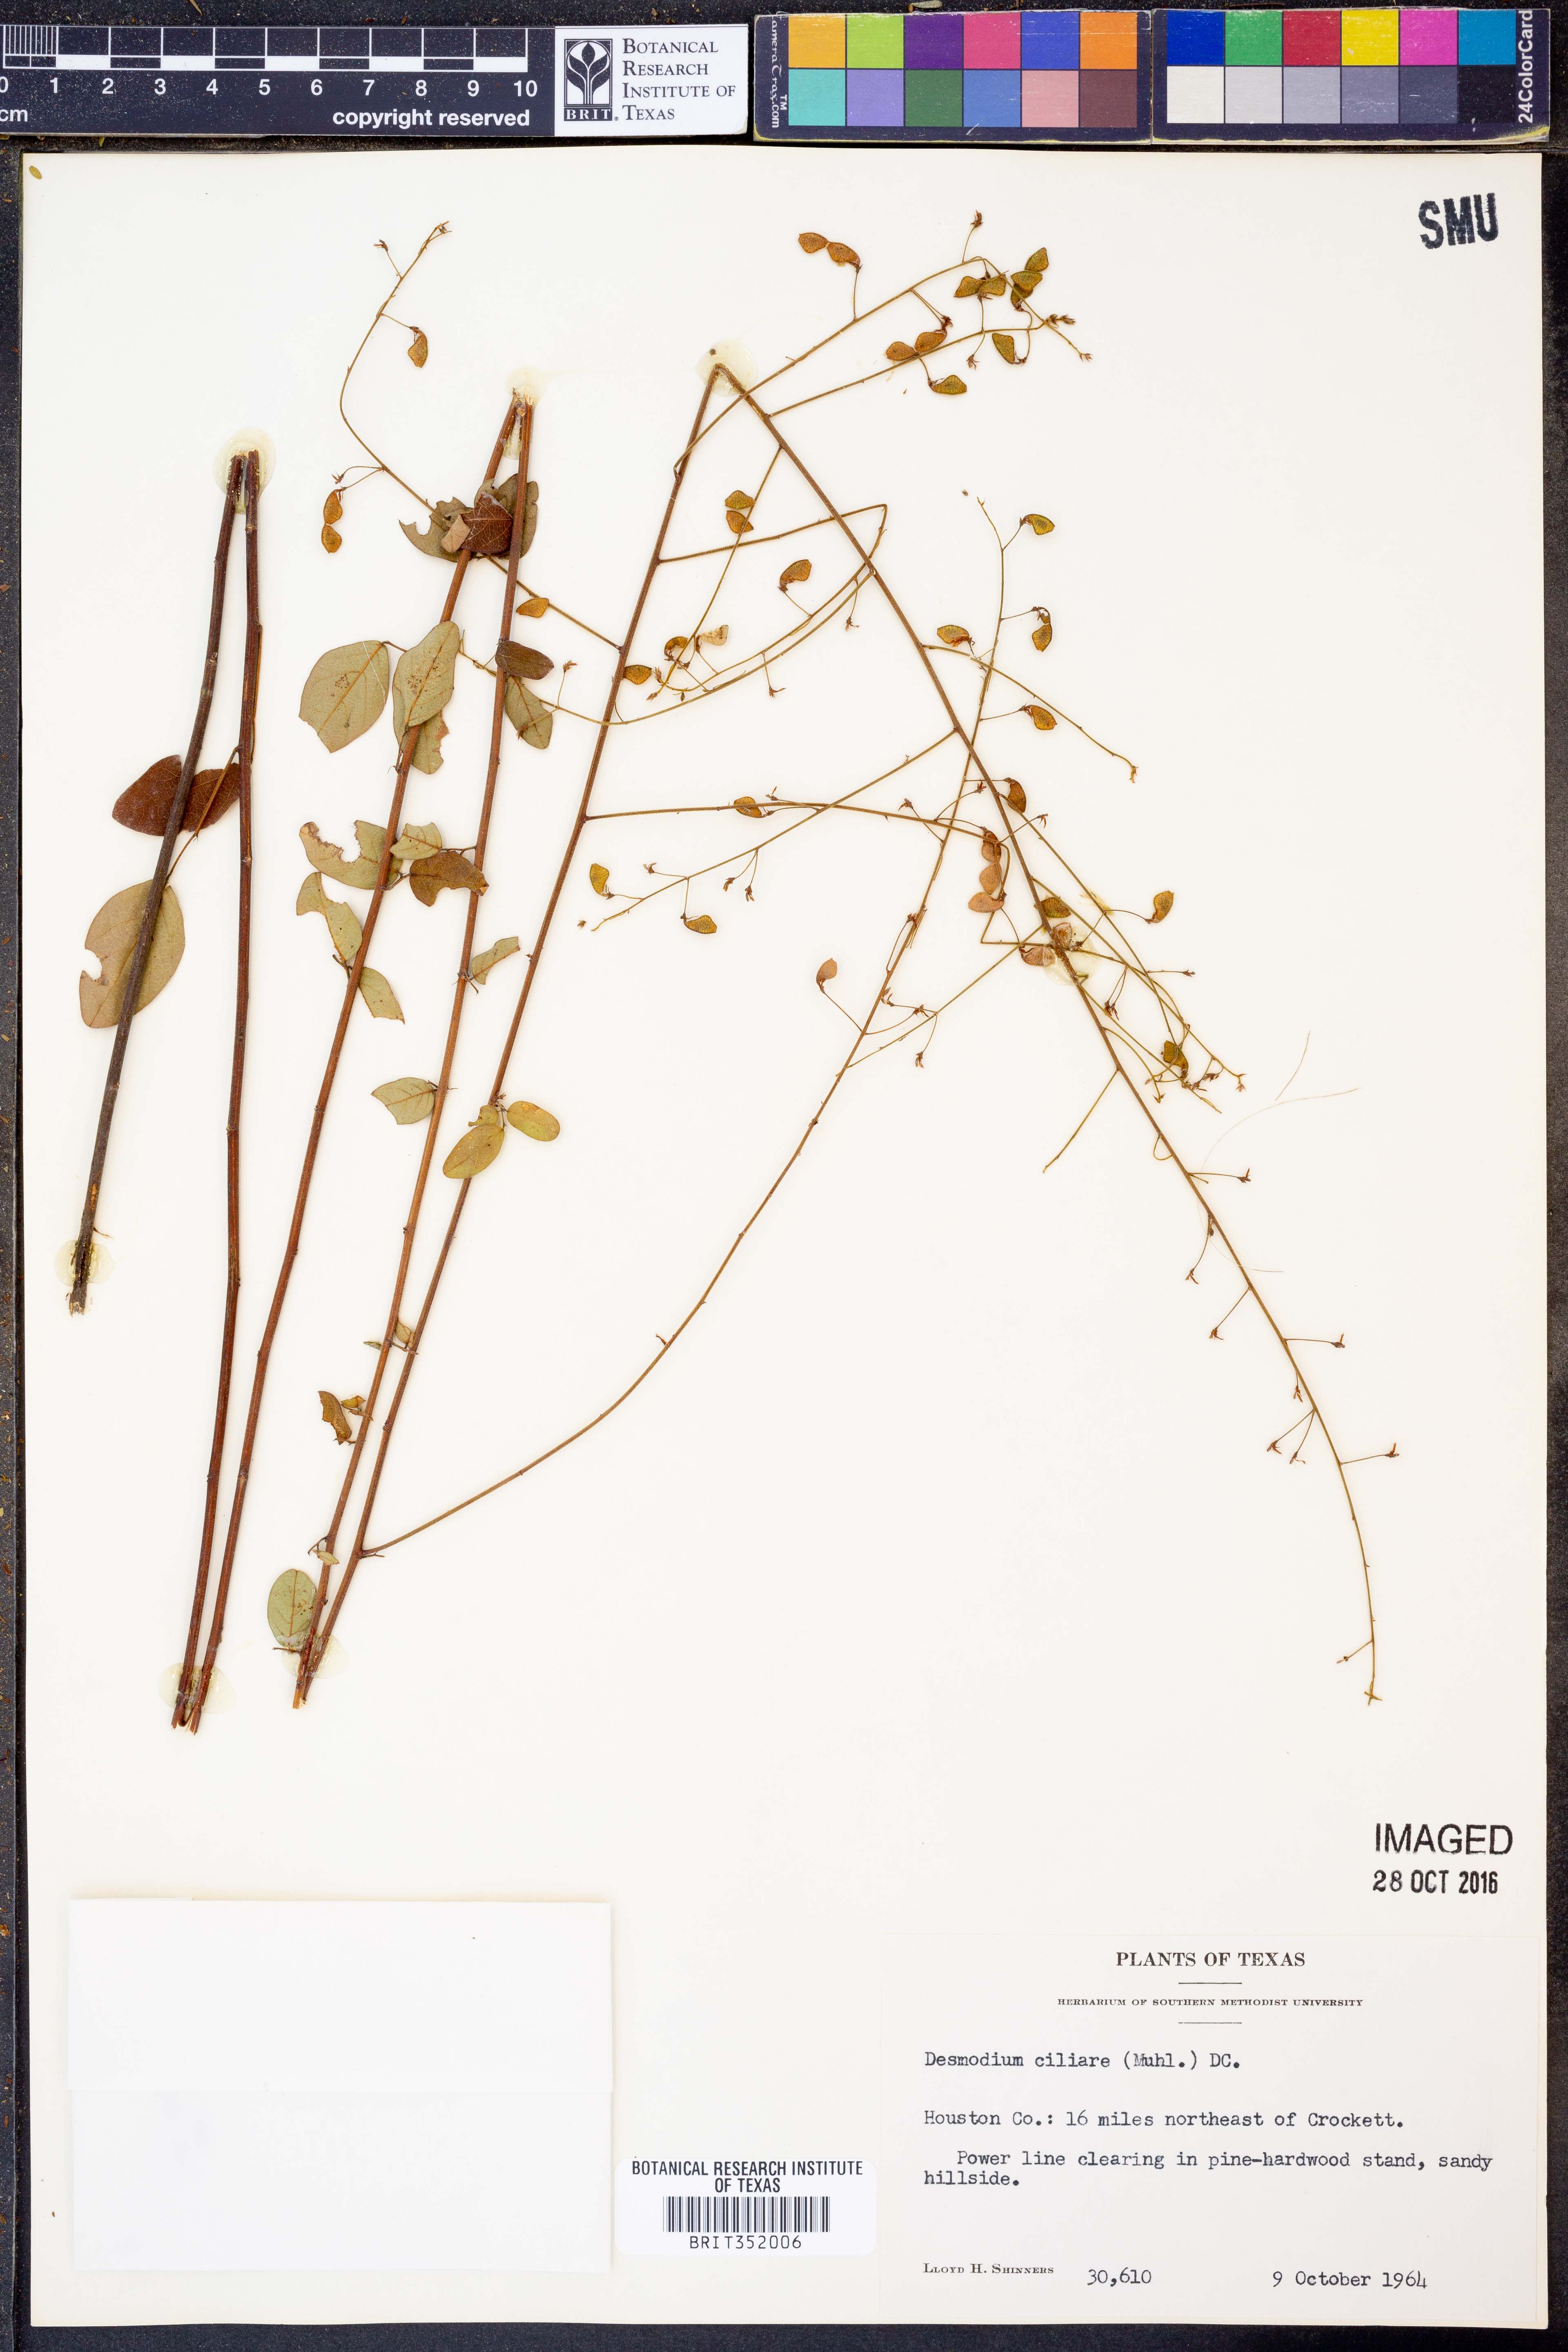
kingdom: Plantae
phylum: Tracheophyta
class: Magnoliopsida
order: Fabales
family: Fabaceae
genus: Desmodium
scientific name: Desmodium ciliare
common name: Hairy small-leaf ticktrefoil
